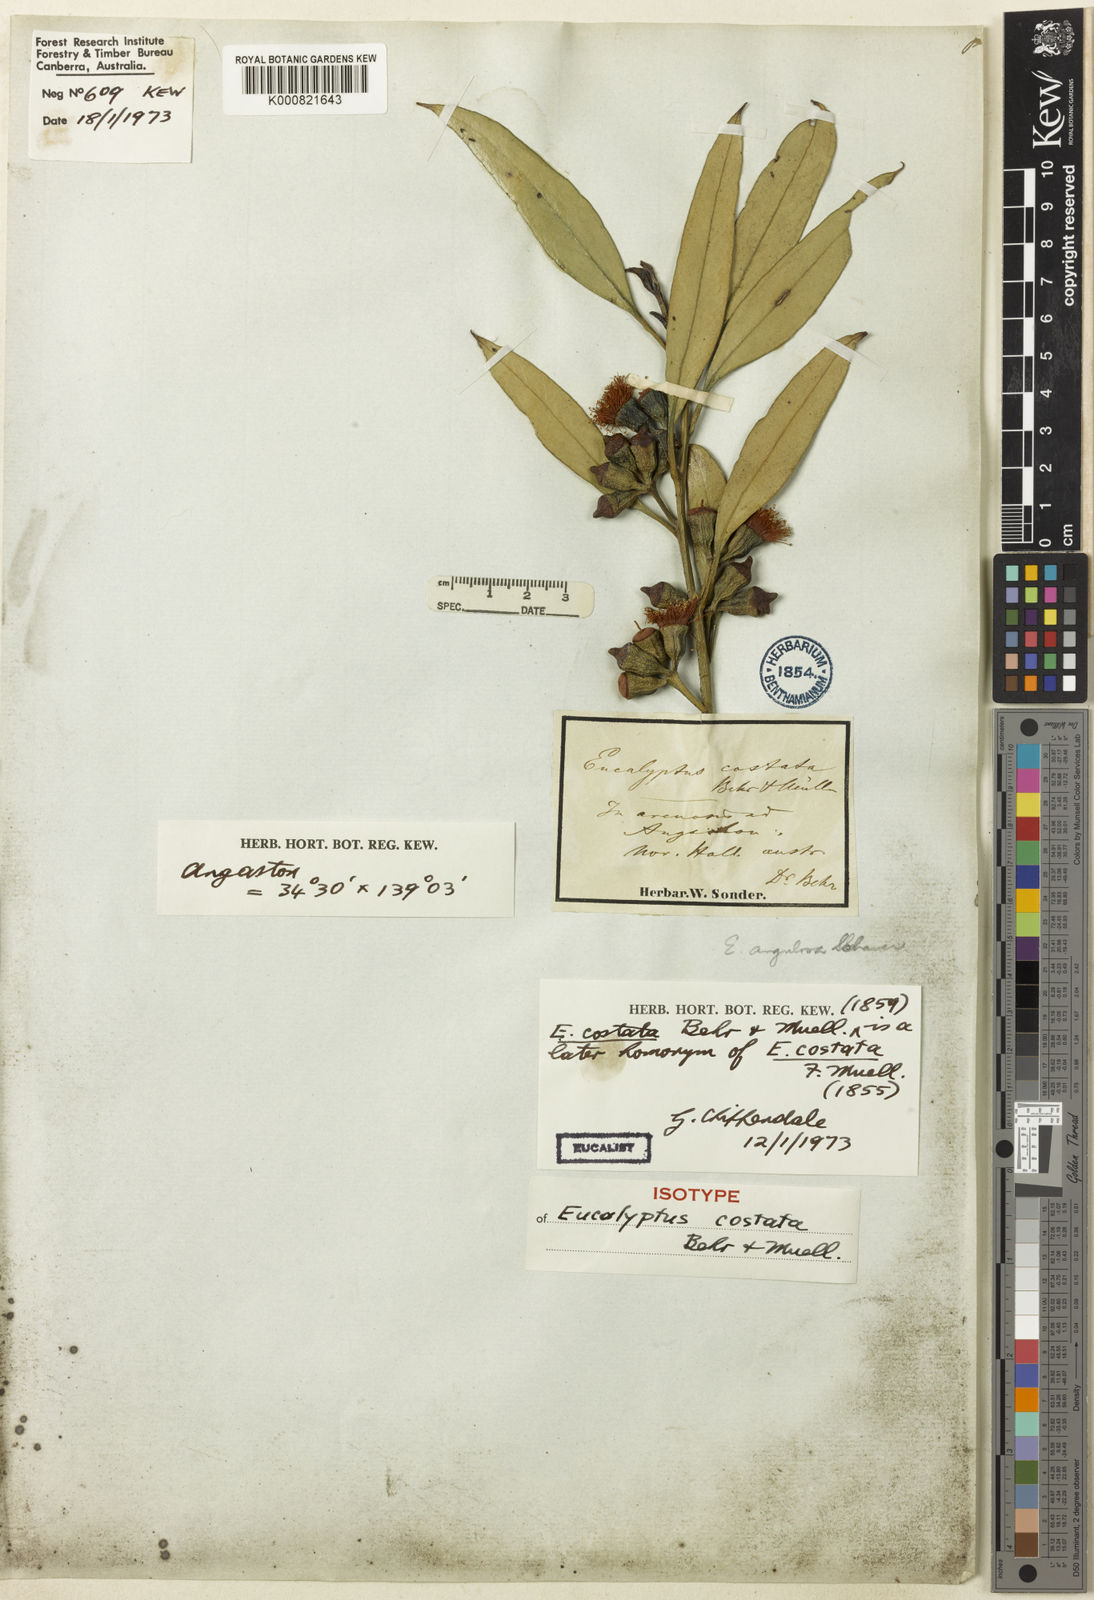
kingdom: Plantae
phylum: Tracheophyta
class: Magnoliopsida
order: Myrtales
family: Myrtaceae
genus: Eucalyptus
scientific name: Eucalyptus costata
